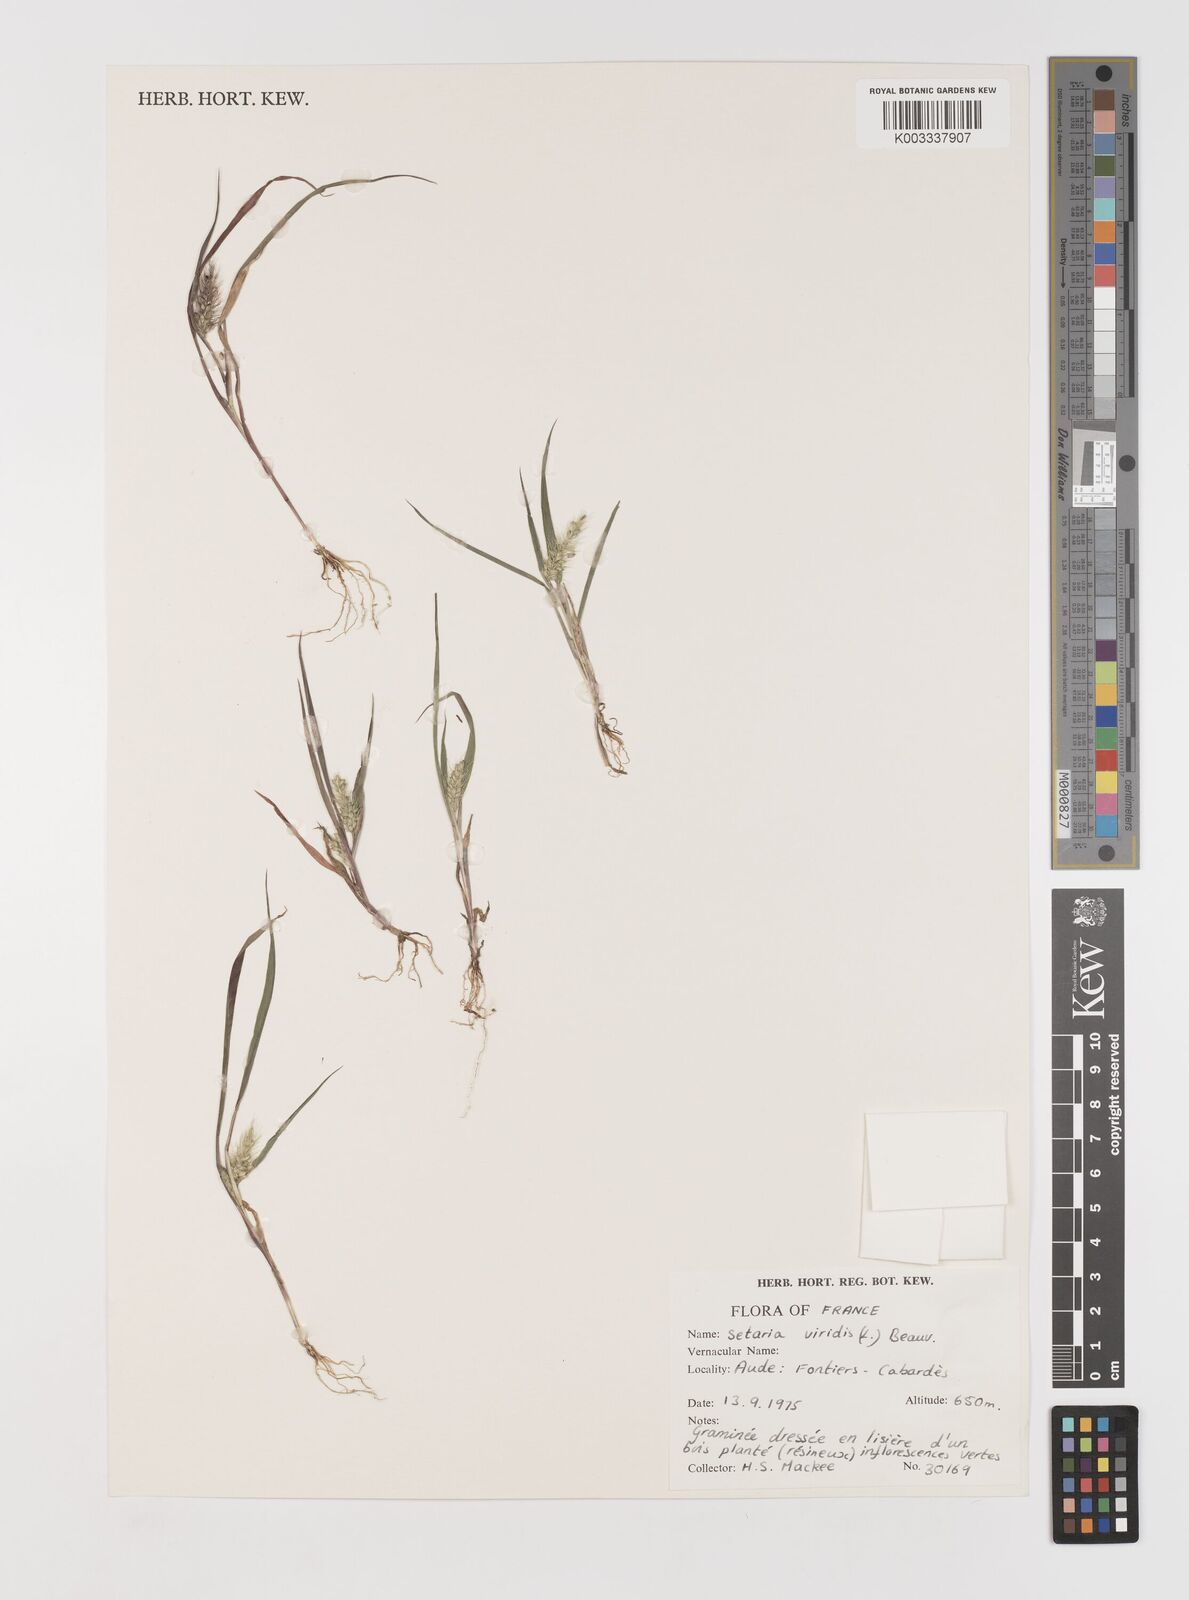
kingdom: Plantae
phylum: Tracheophyta
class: Liliopsida
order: Poales
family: Poaceae
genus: Setaria
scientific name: Setaria viridis
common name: Green bristlegrass
